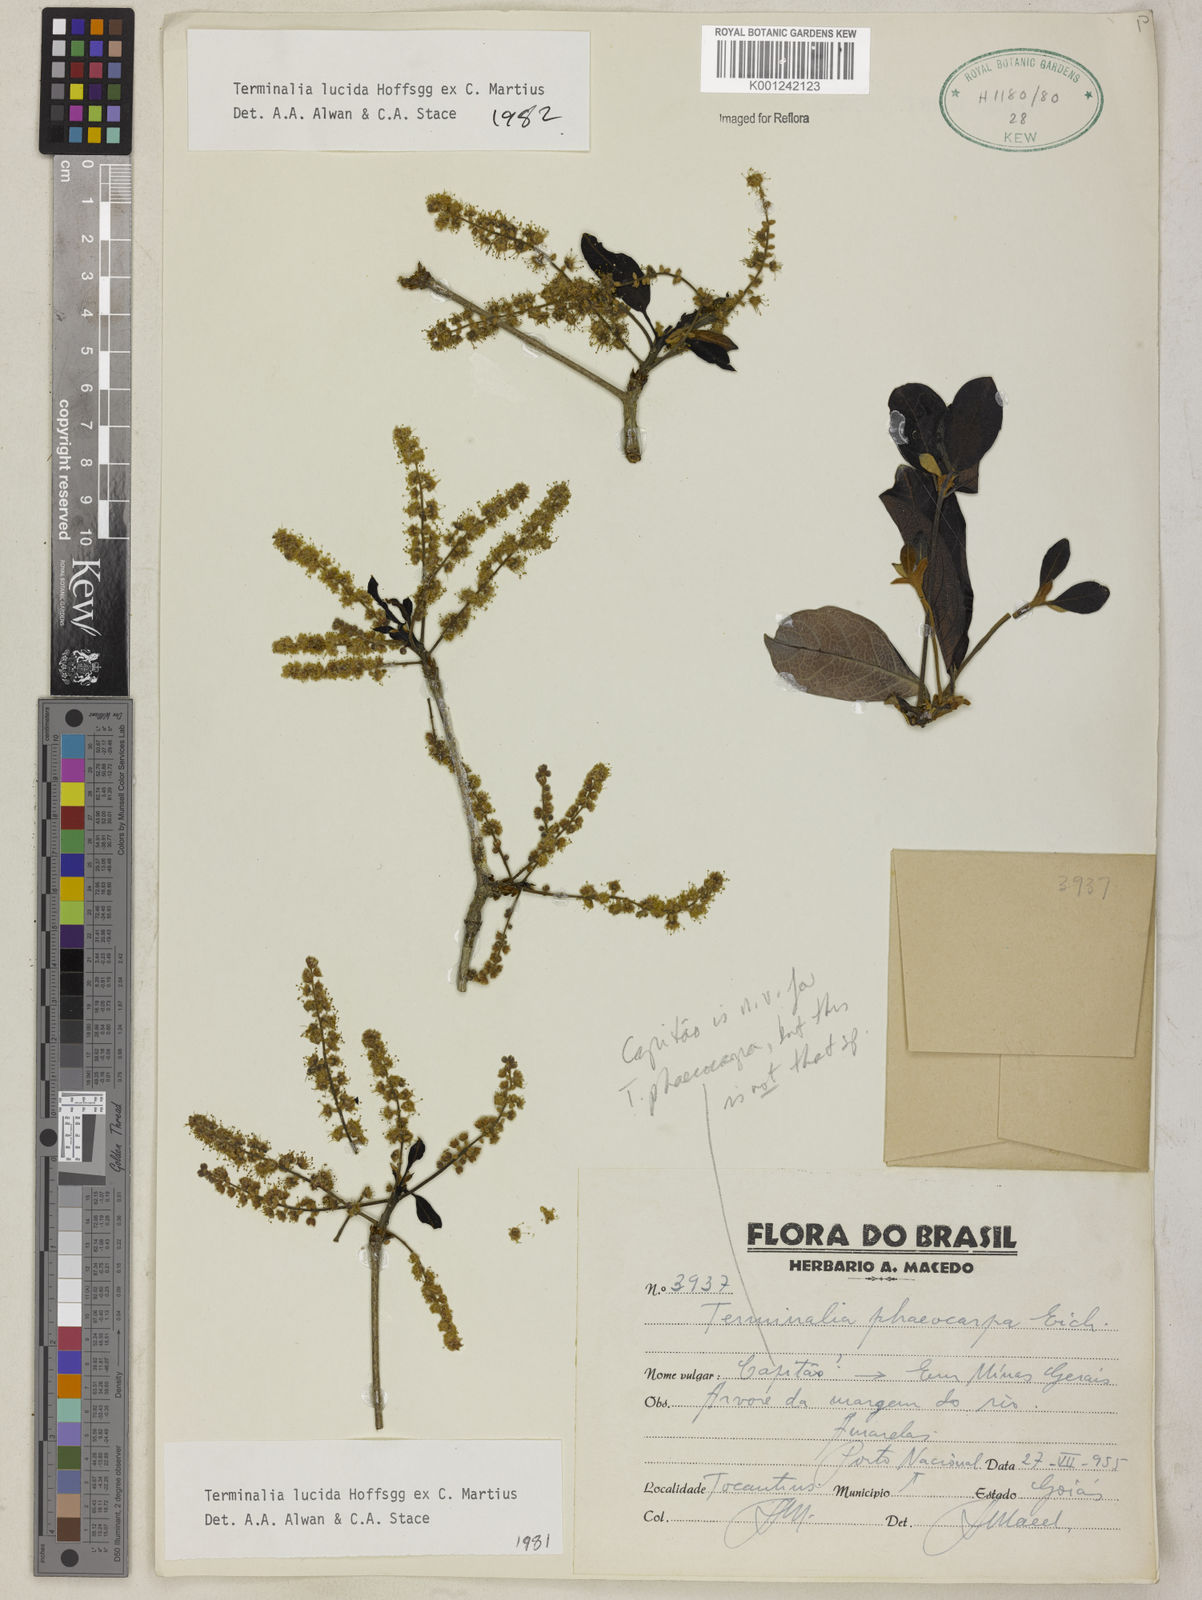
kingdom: Plantae
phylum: Tracheophyta
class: Magnoliopsida
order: Myrtales
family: Combretaceae
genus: Terminalia
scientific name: Terminalia lucida
